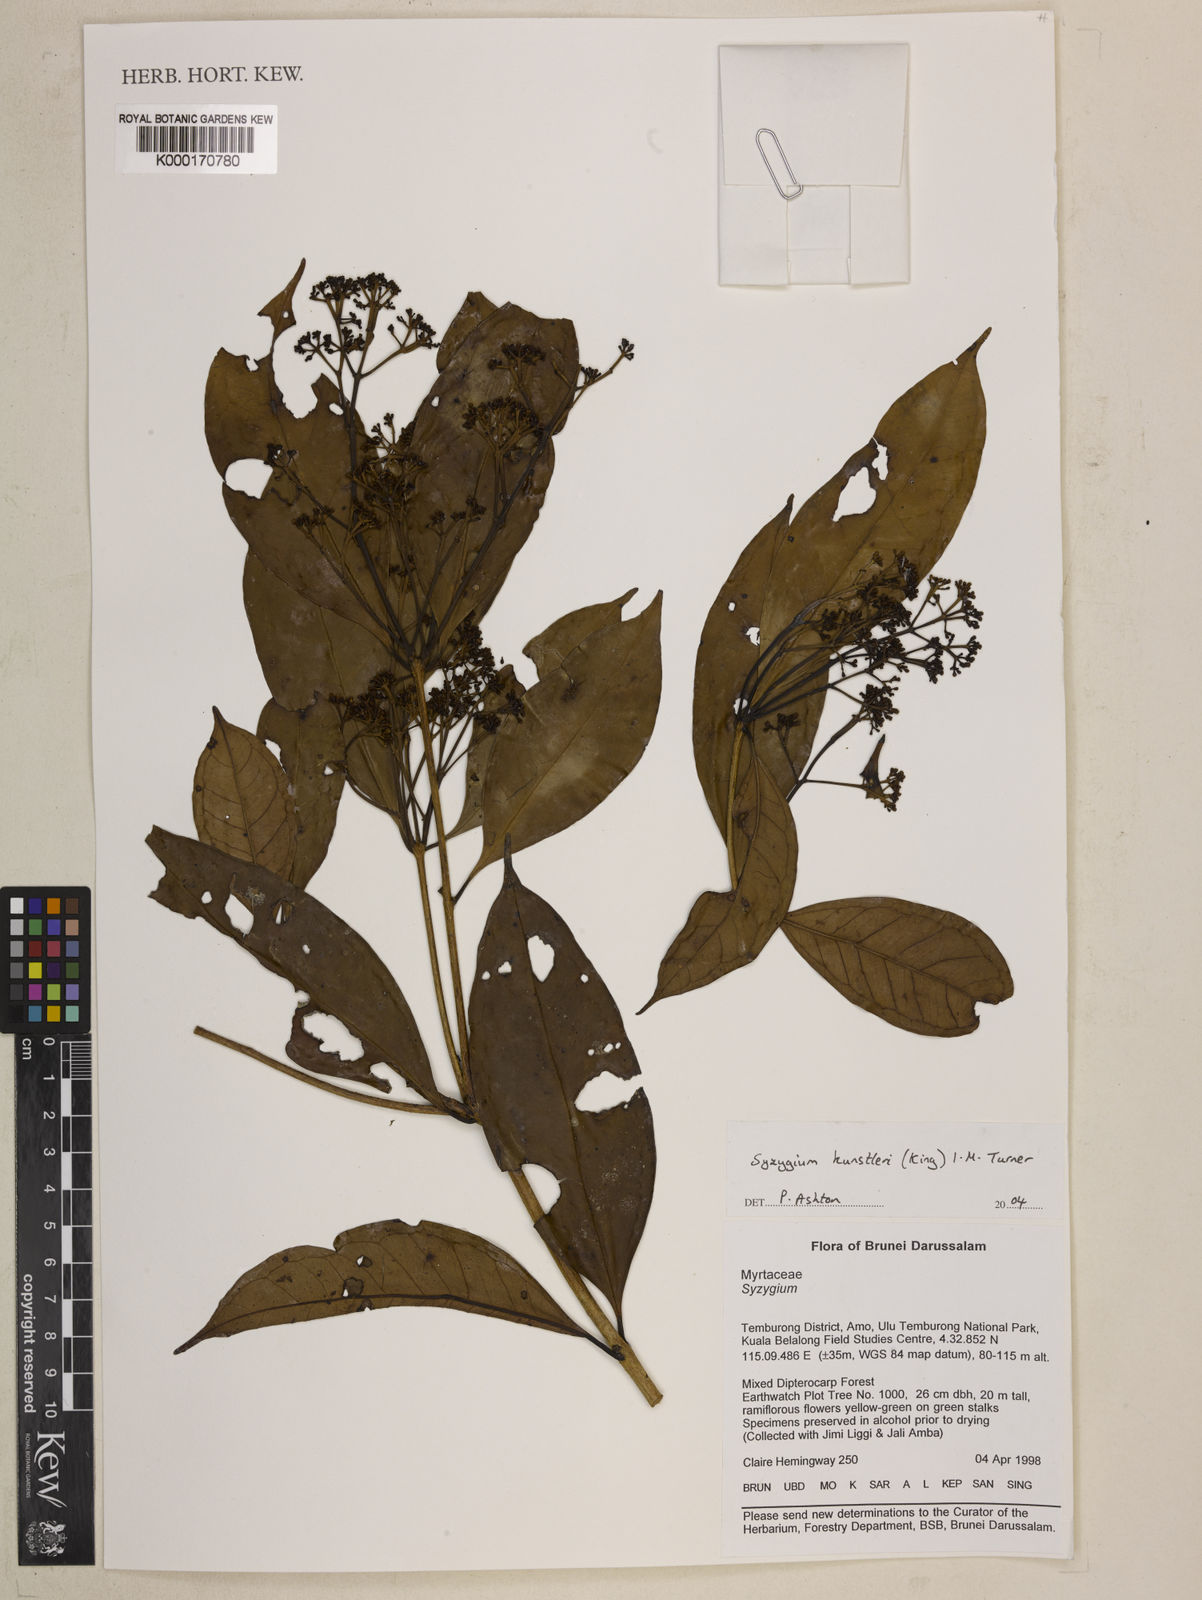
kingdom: Plantae
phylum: Tracheophyta
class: Magnoliopsida
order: Myrtales
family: Myrtaceae
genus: Syzygium
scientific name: Syzygium
